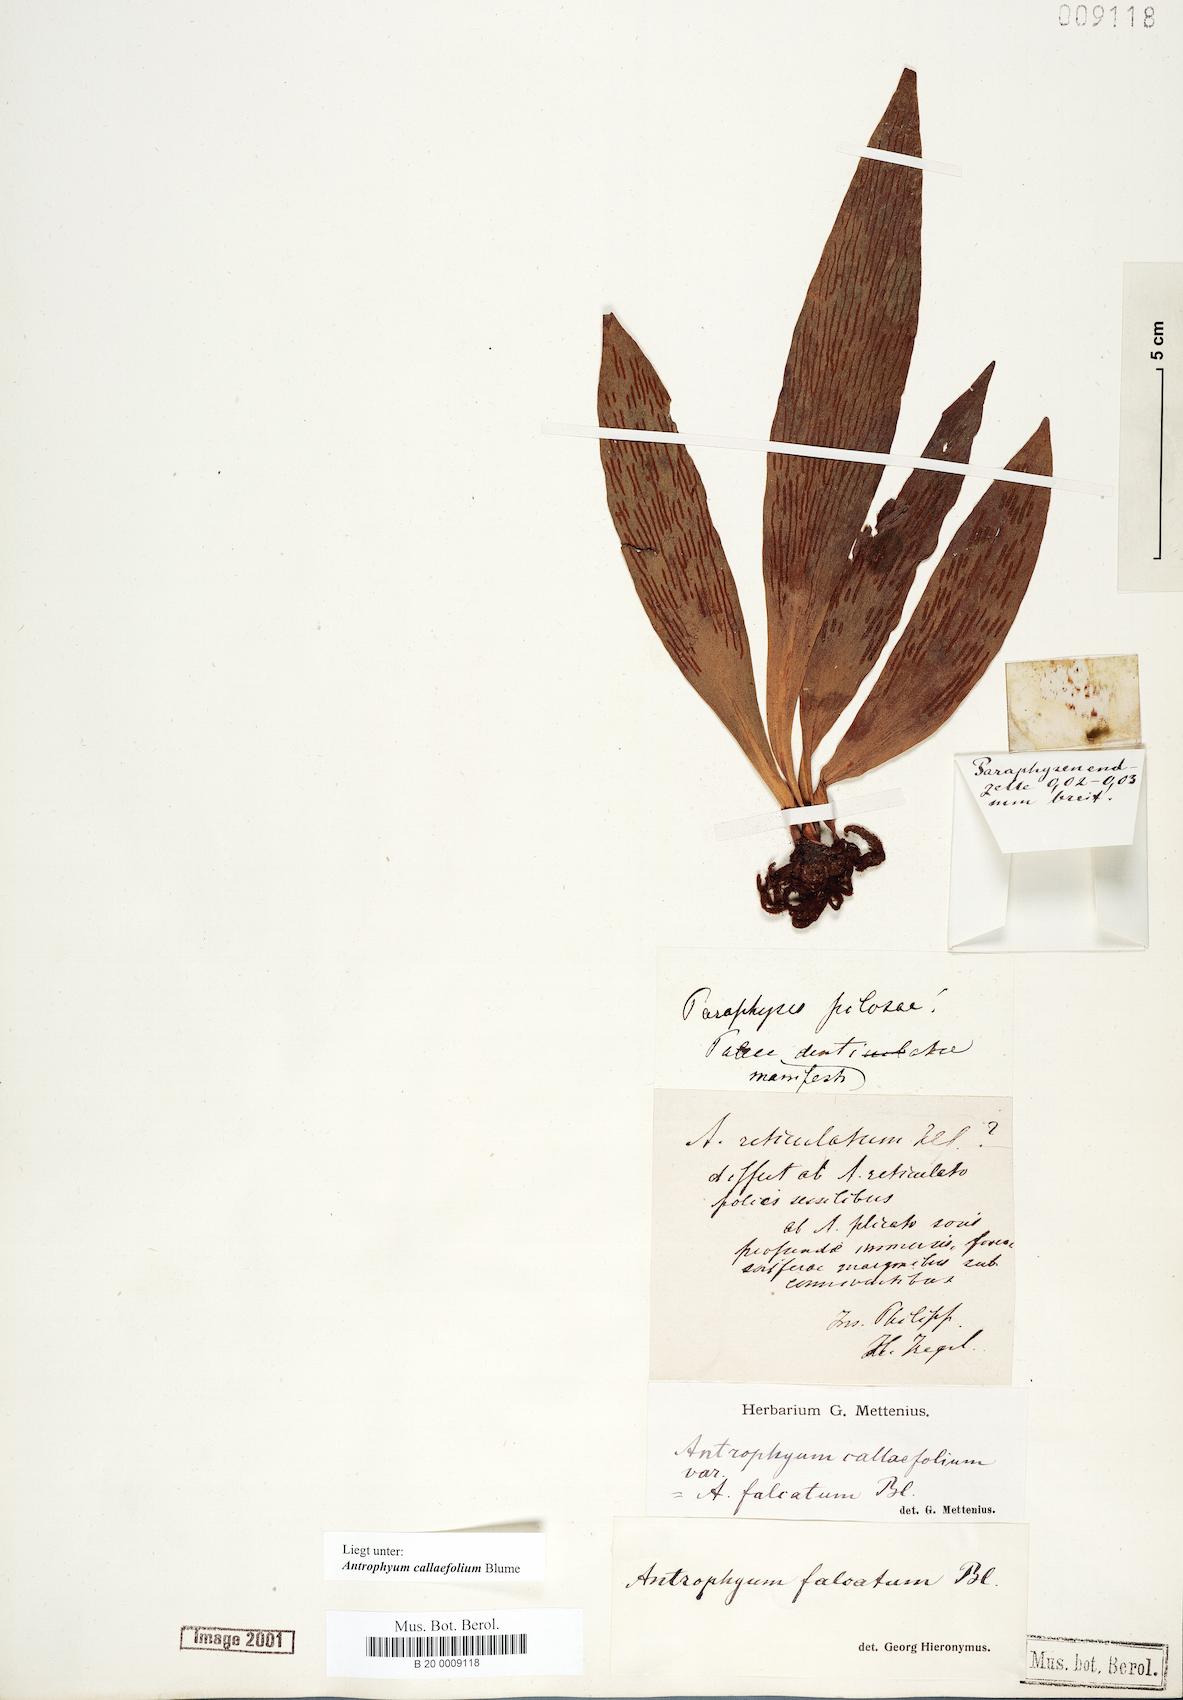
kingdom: Plantae
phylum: Tracheophyta
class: Polypodiopsida
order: Polypodiales
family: Pteridaceae
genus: Antrophyum
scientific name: Antrophyum callifolium
